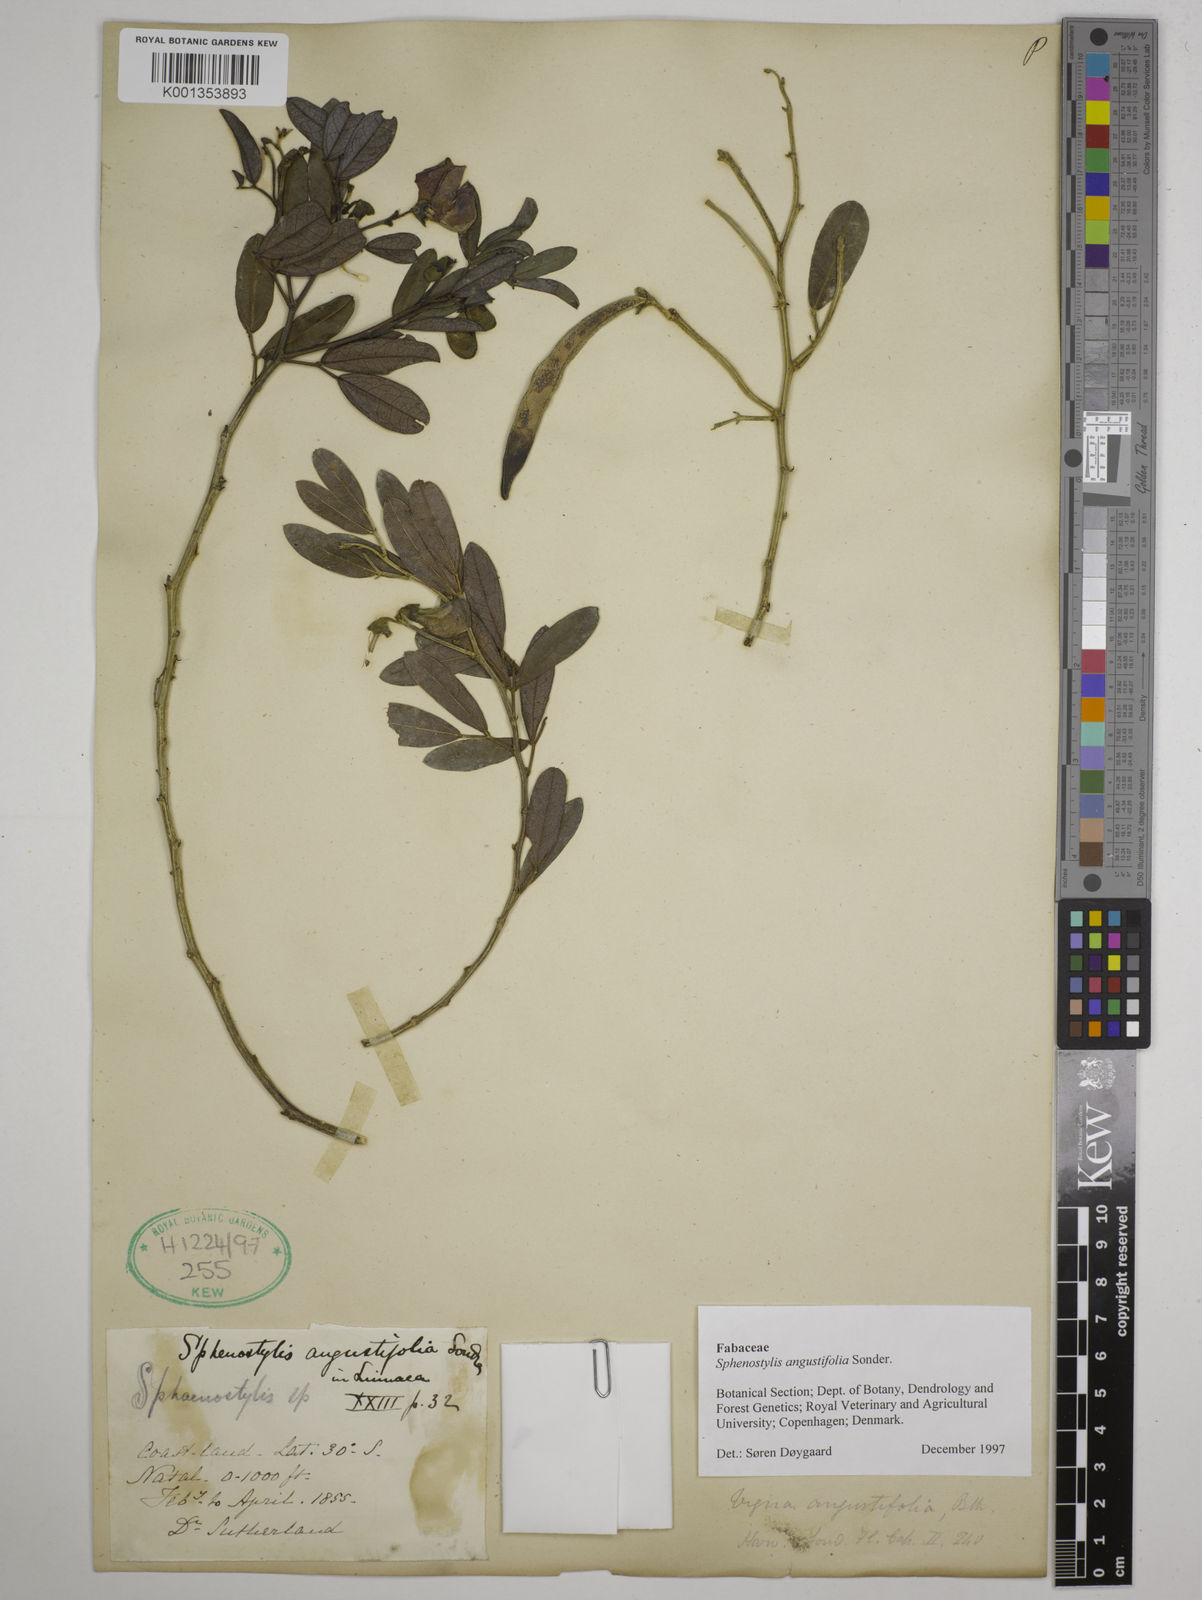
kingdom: Plantae
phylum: Tracheophyta
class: Magnoliopsida
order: Fabales
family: Fabaceae
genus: Sphenostylis
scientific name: Sphenostylis angustifolia
